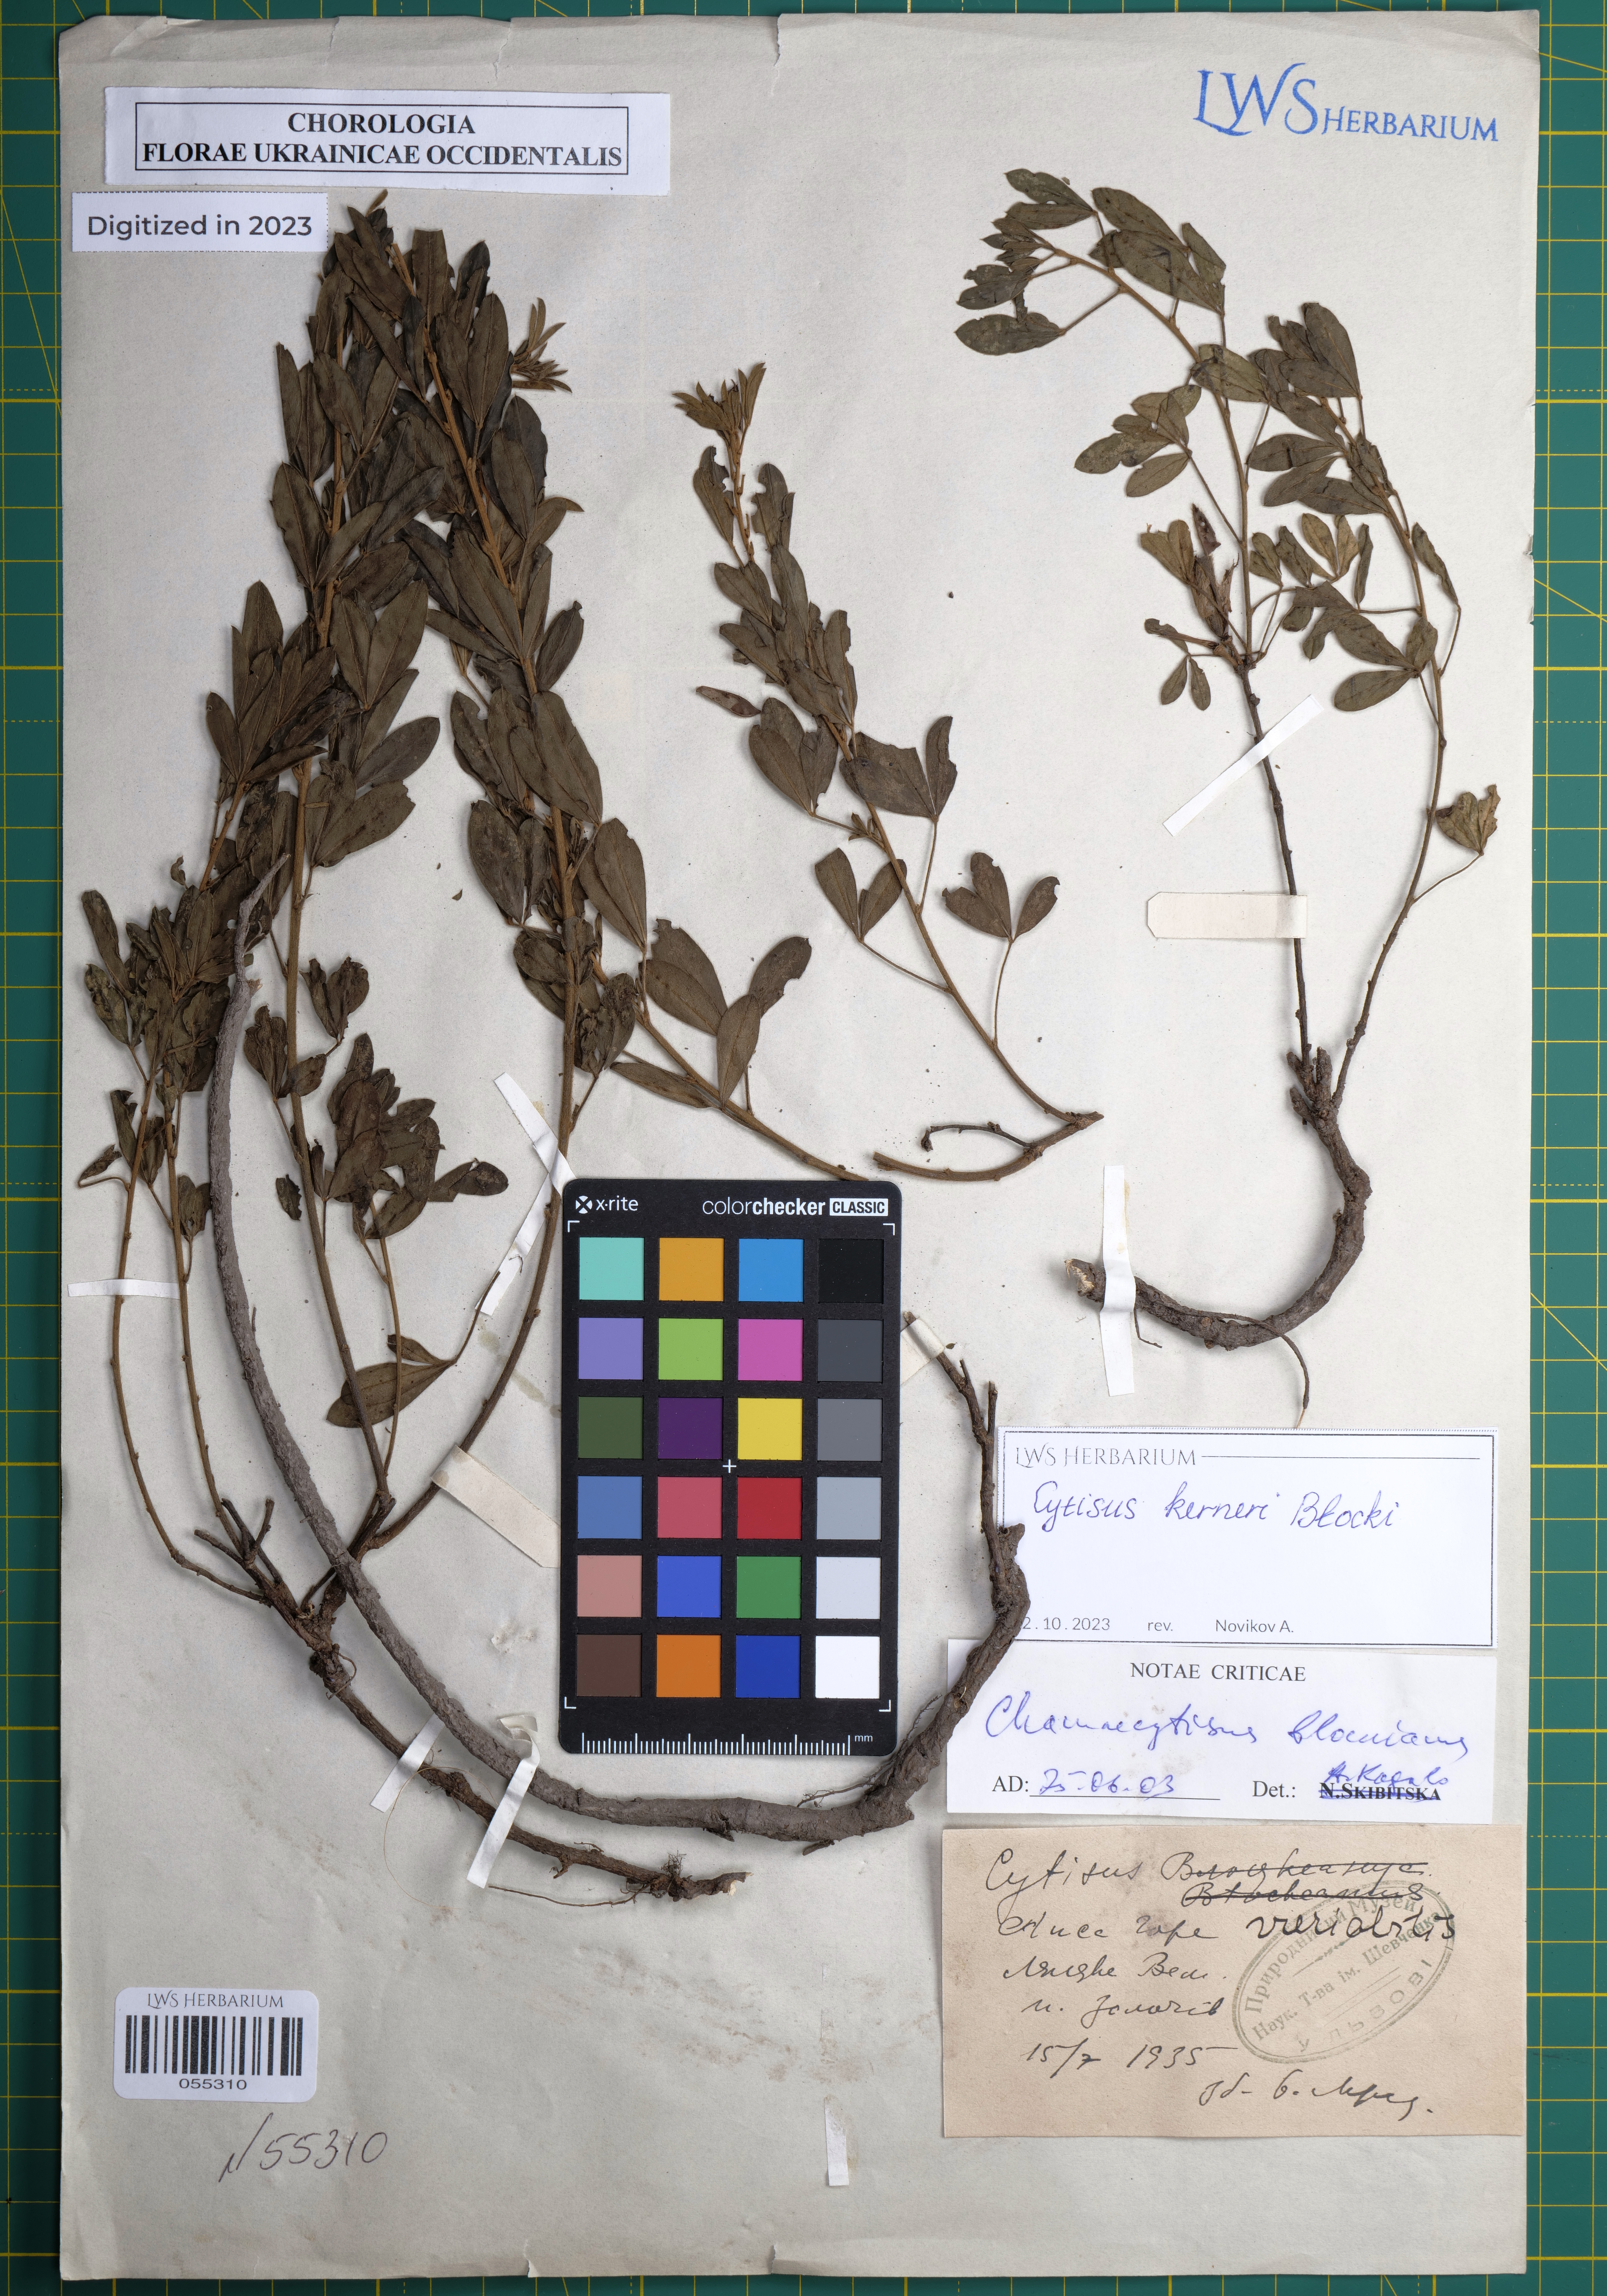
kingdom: Plantae
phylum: Tracheophyta
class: Magnoliopsida
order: Fabales
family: Fabaceae
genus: Chamaecytisus
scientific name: Chamaecytisus albus
